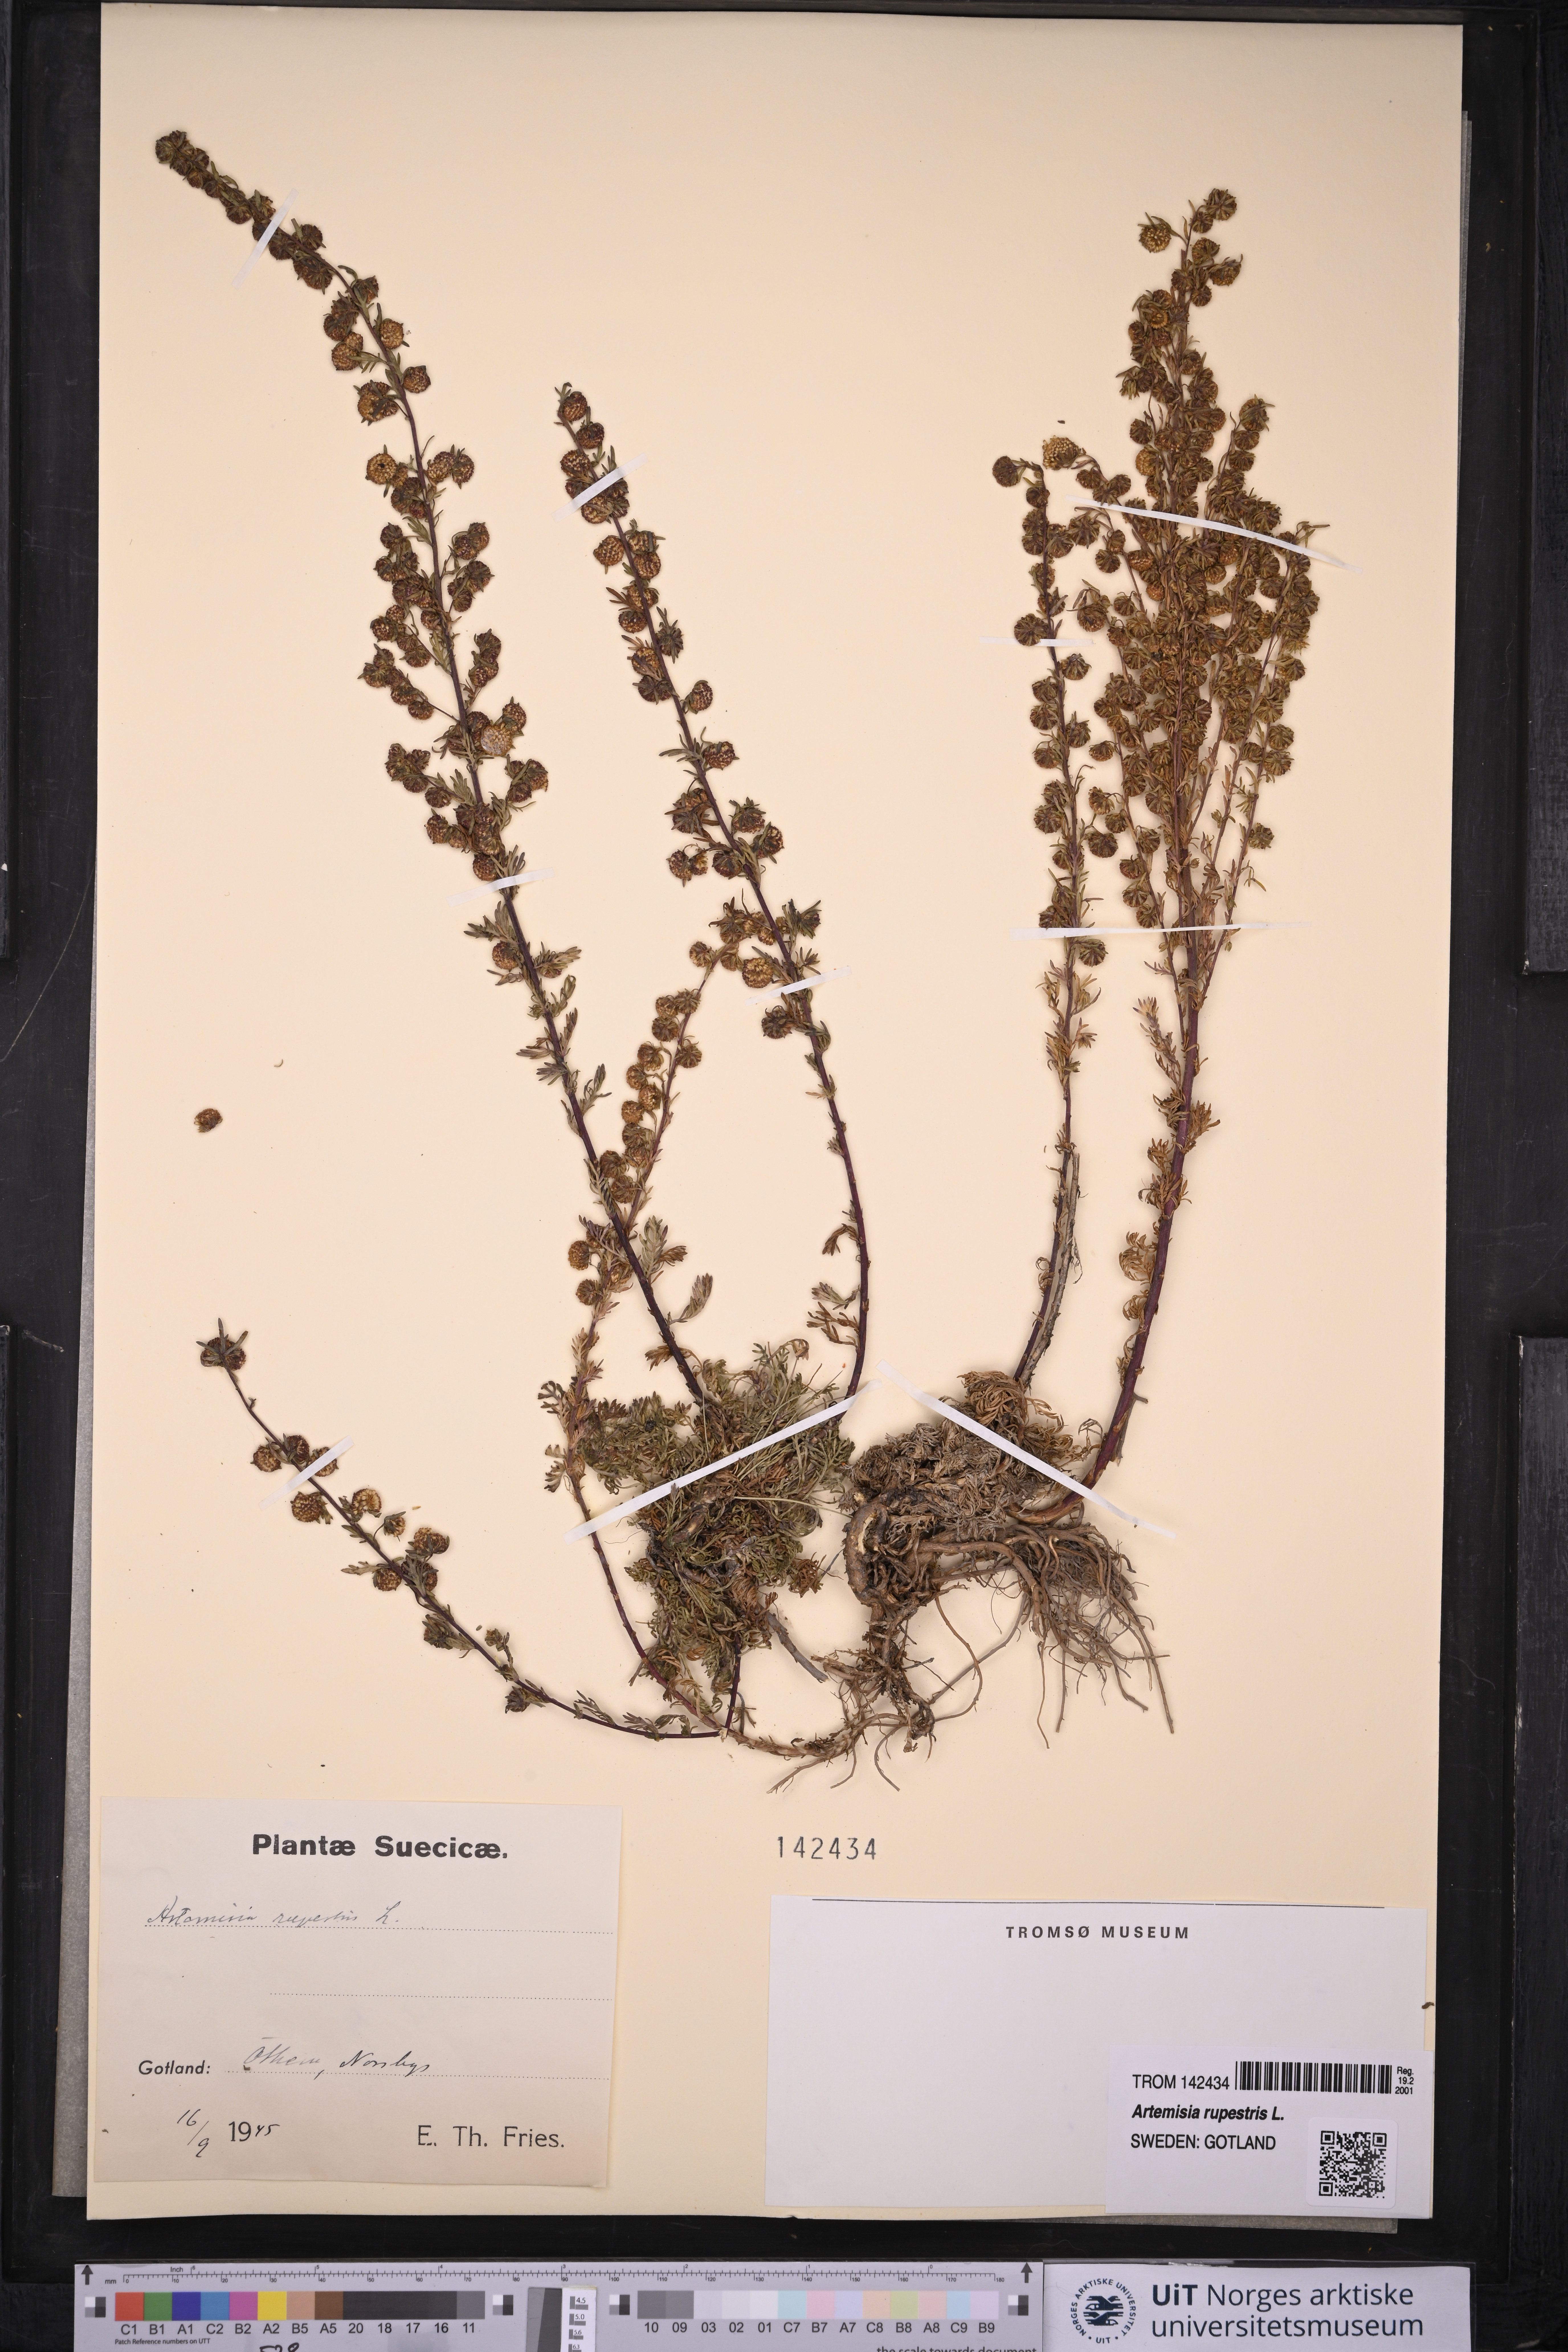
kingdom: Plantae
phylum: Tracheophyta
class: Magnoliopsida
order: Asterales
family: Asteraceae
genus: Artemisia
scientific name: Artemisia rupestris
